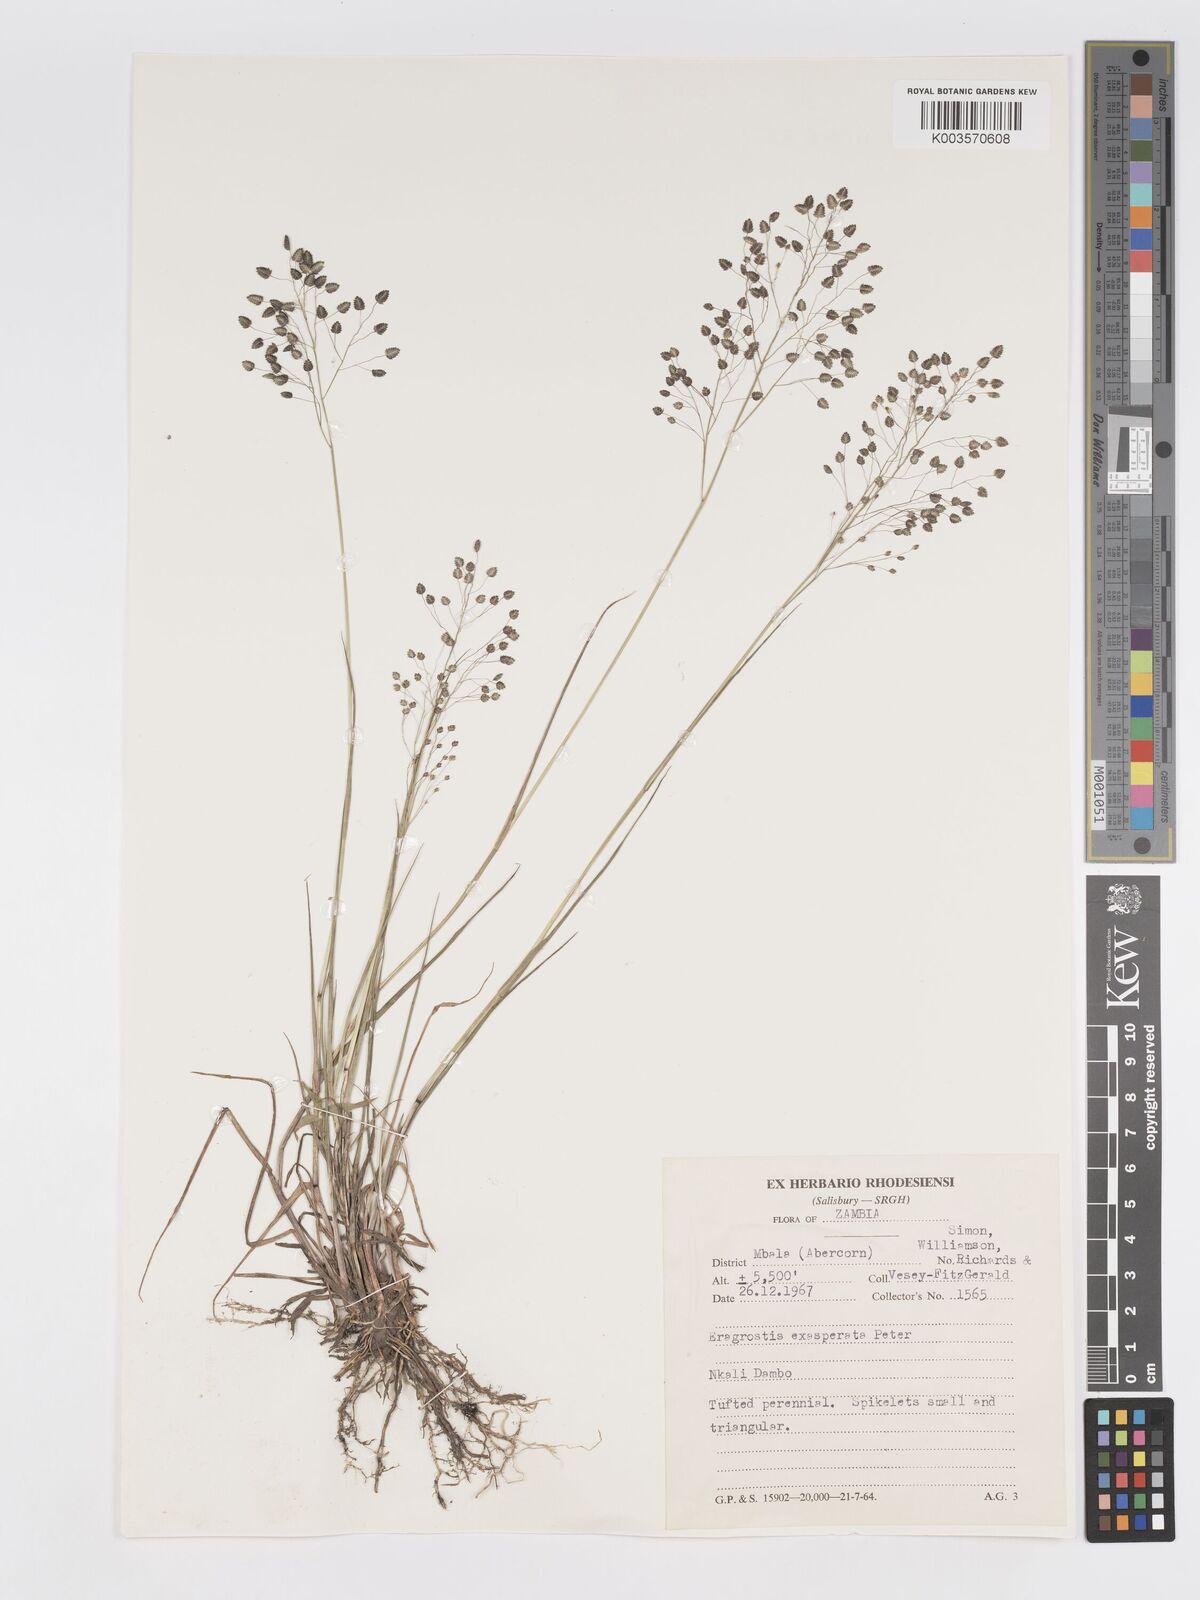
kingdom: Plantae
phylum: Tracheophyta
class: Liliopsida
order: Poales
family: Poaceae
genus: Eragrostis
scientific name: Eragrostis exasperata
